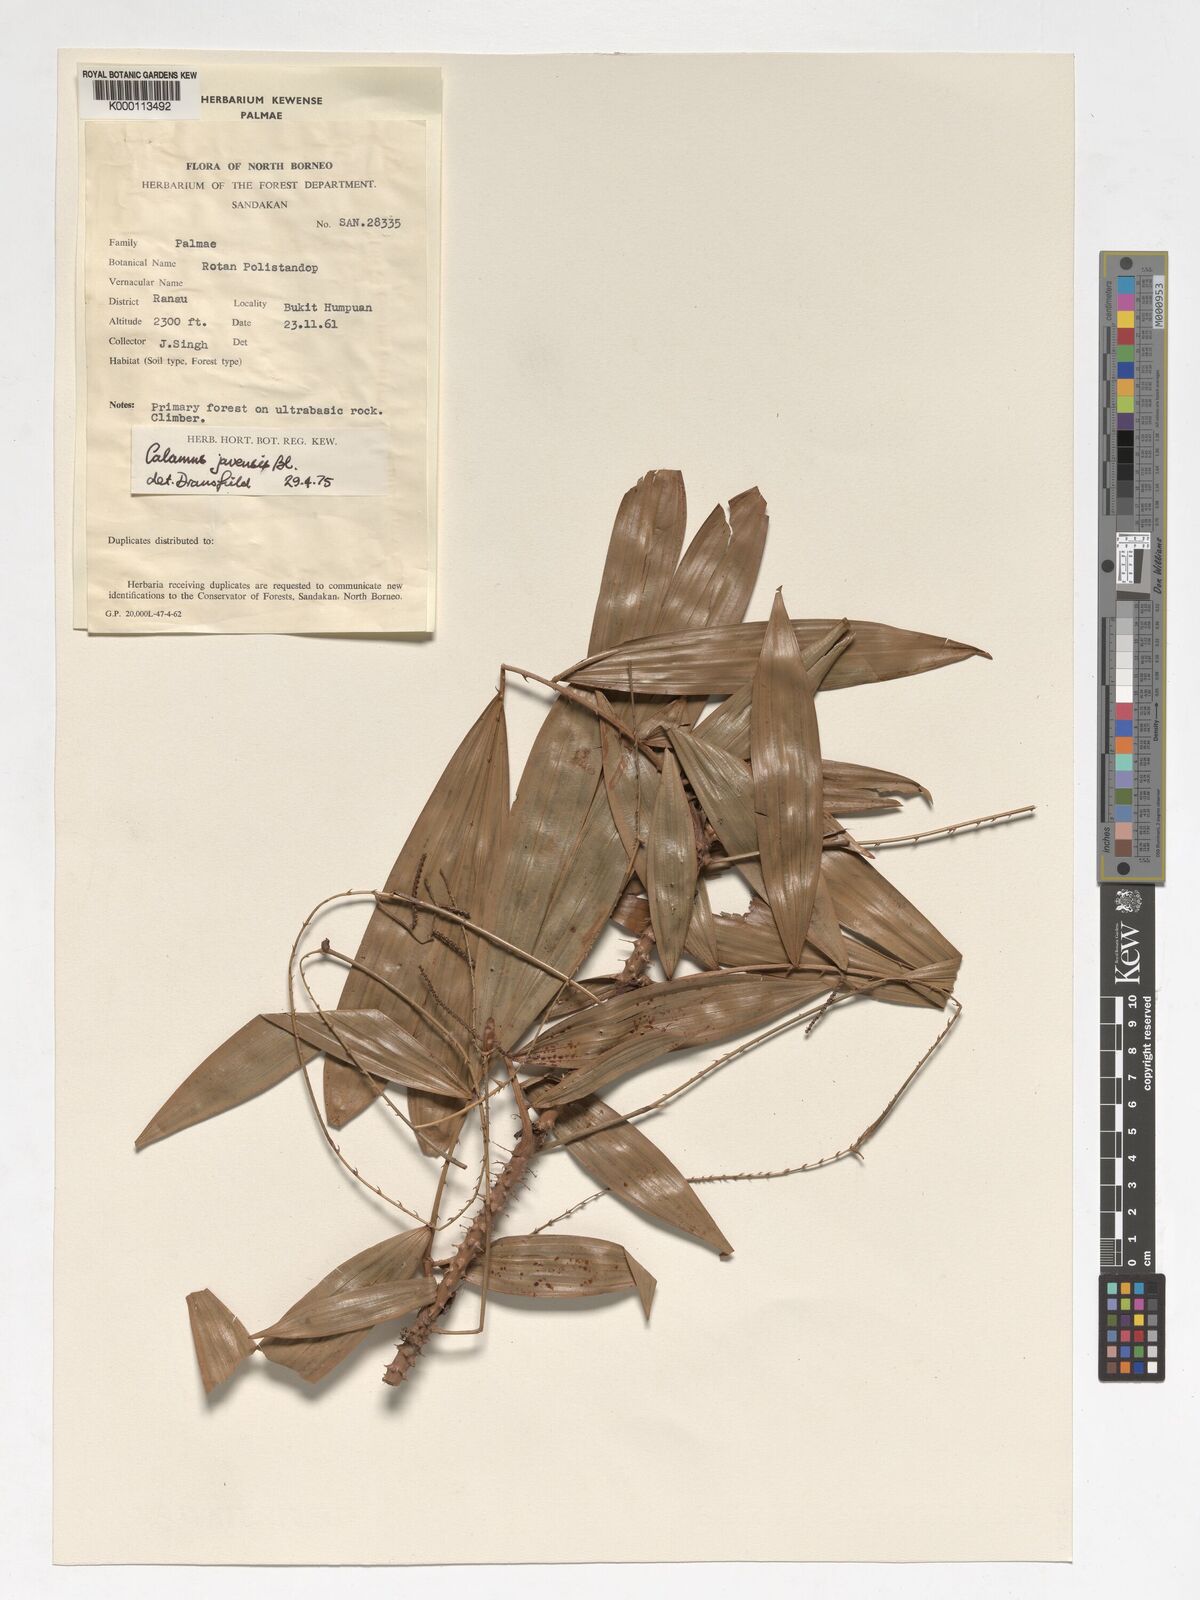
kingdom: Plantae
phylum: Tracheophyta
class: Liliopsida
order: Arecales
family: Arecaceae
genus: Calamus
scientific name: Calamus javensis
